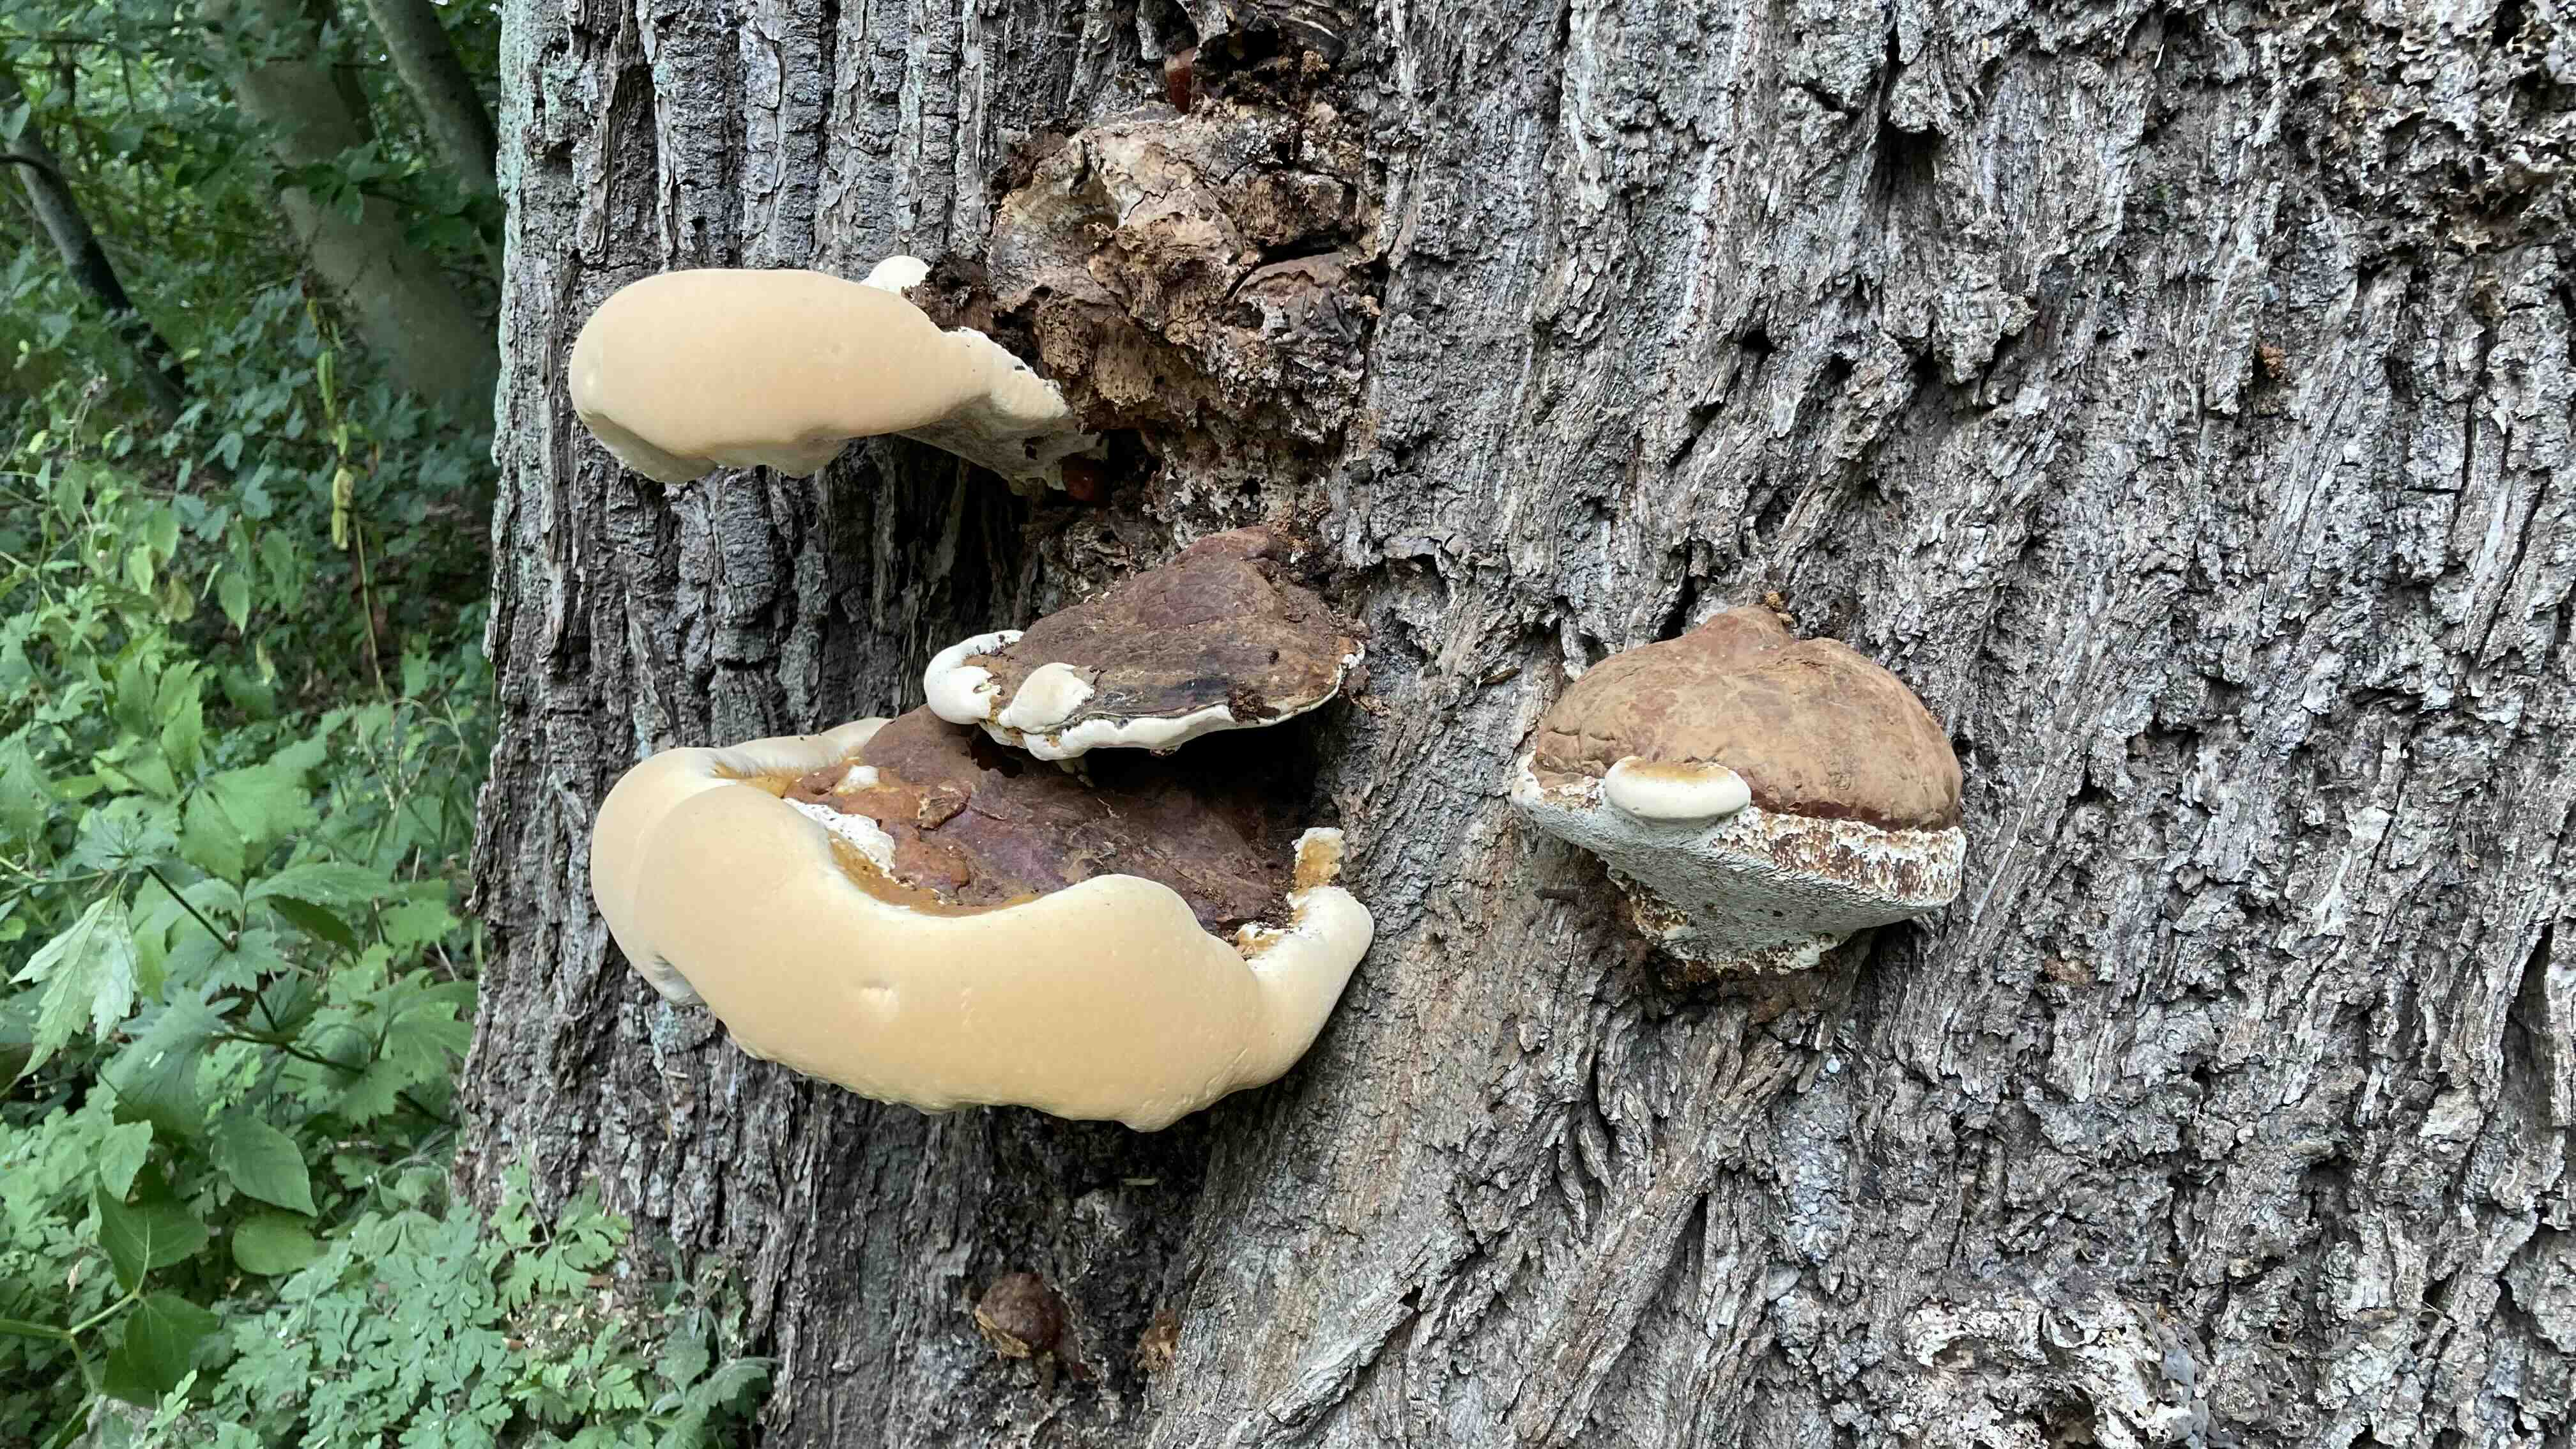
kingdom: Fungi
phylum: Basidiomycota
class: Agaricomycetes
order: Polyporales
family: Polyporaceae
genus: Ganoderma
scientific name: Ganoderma resinaceum
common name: gyldenbrun lakporesvamp
